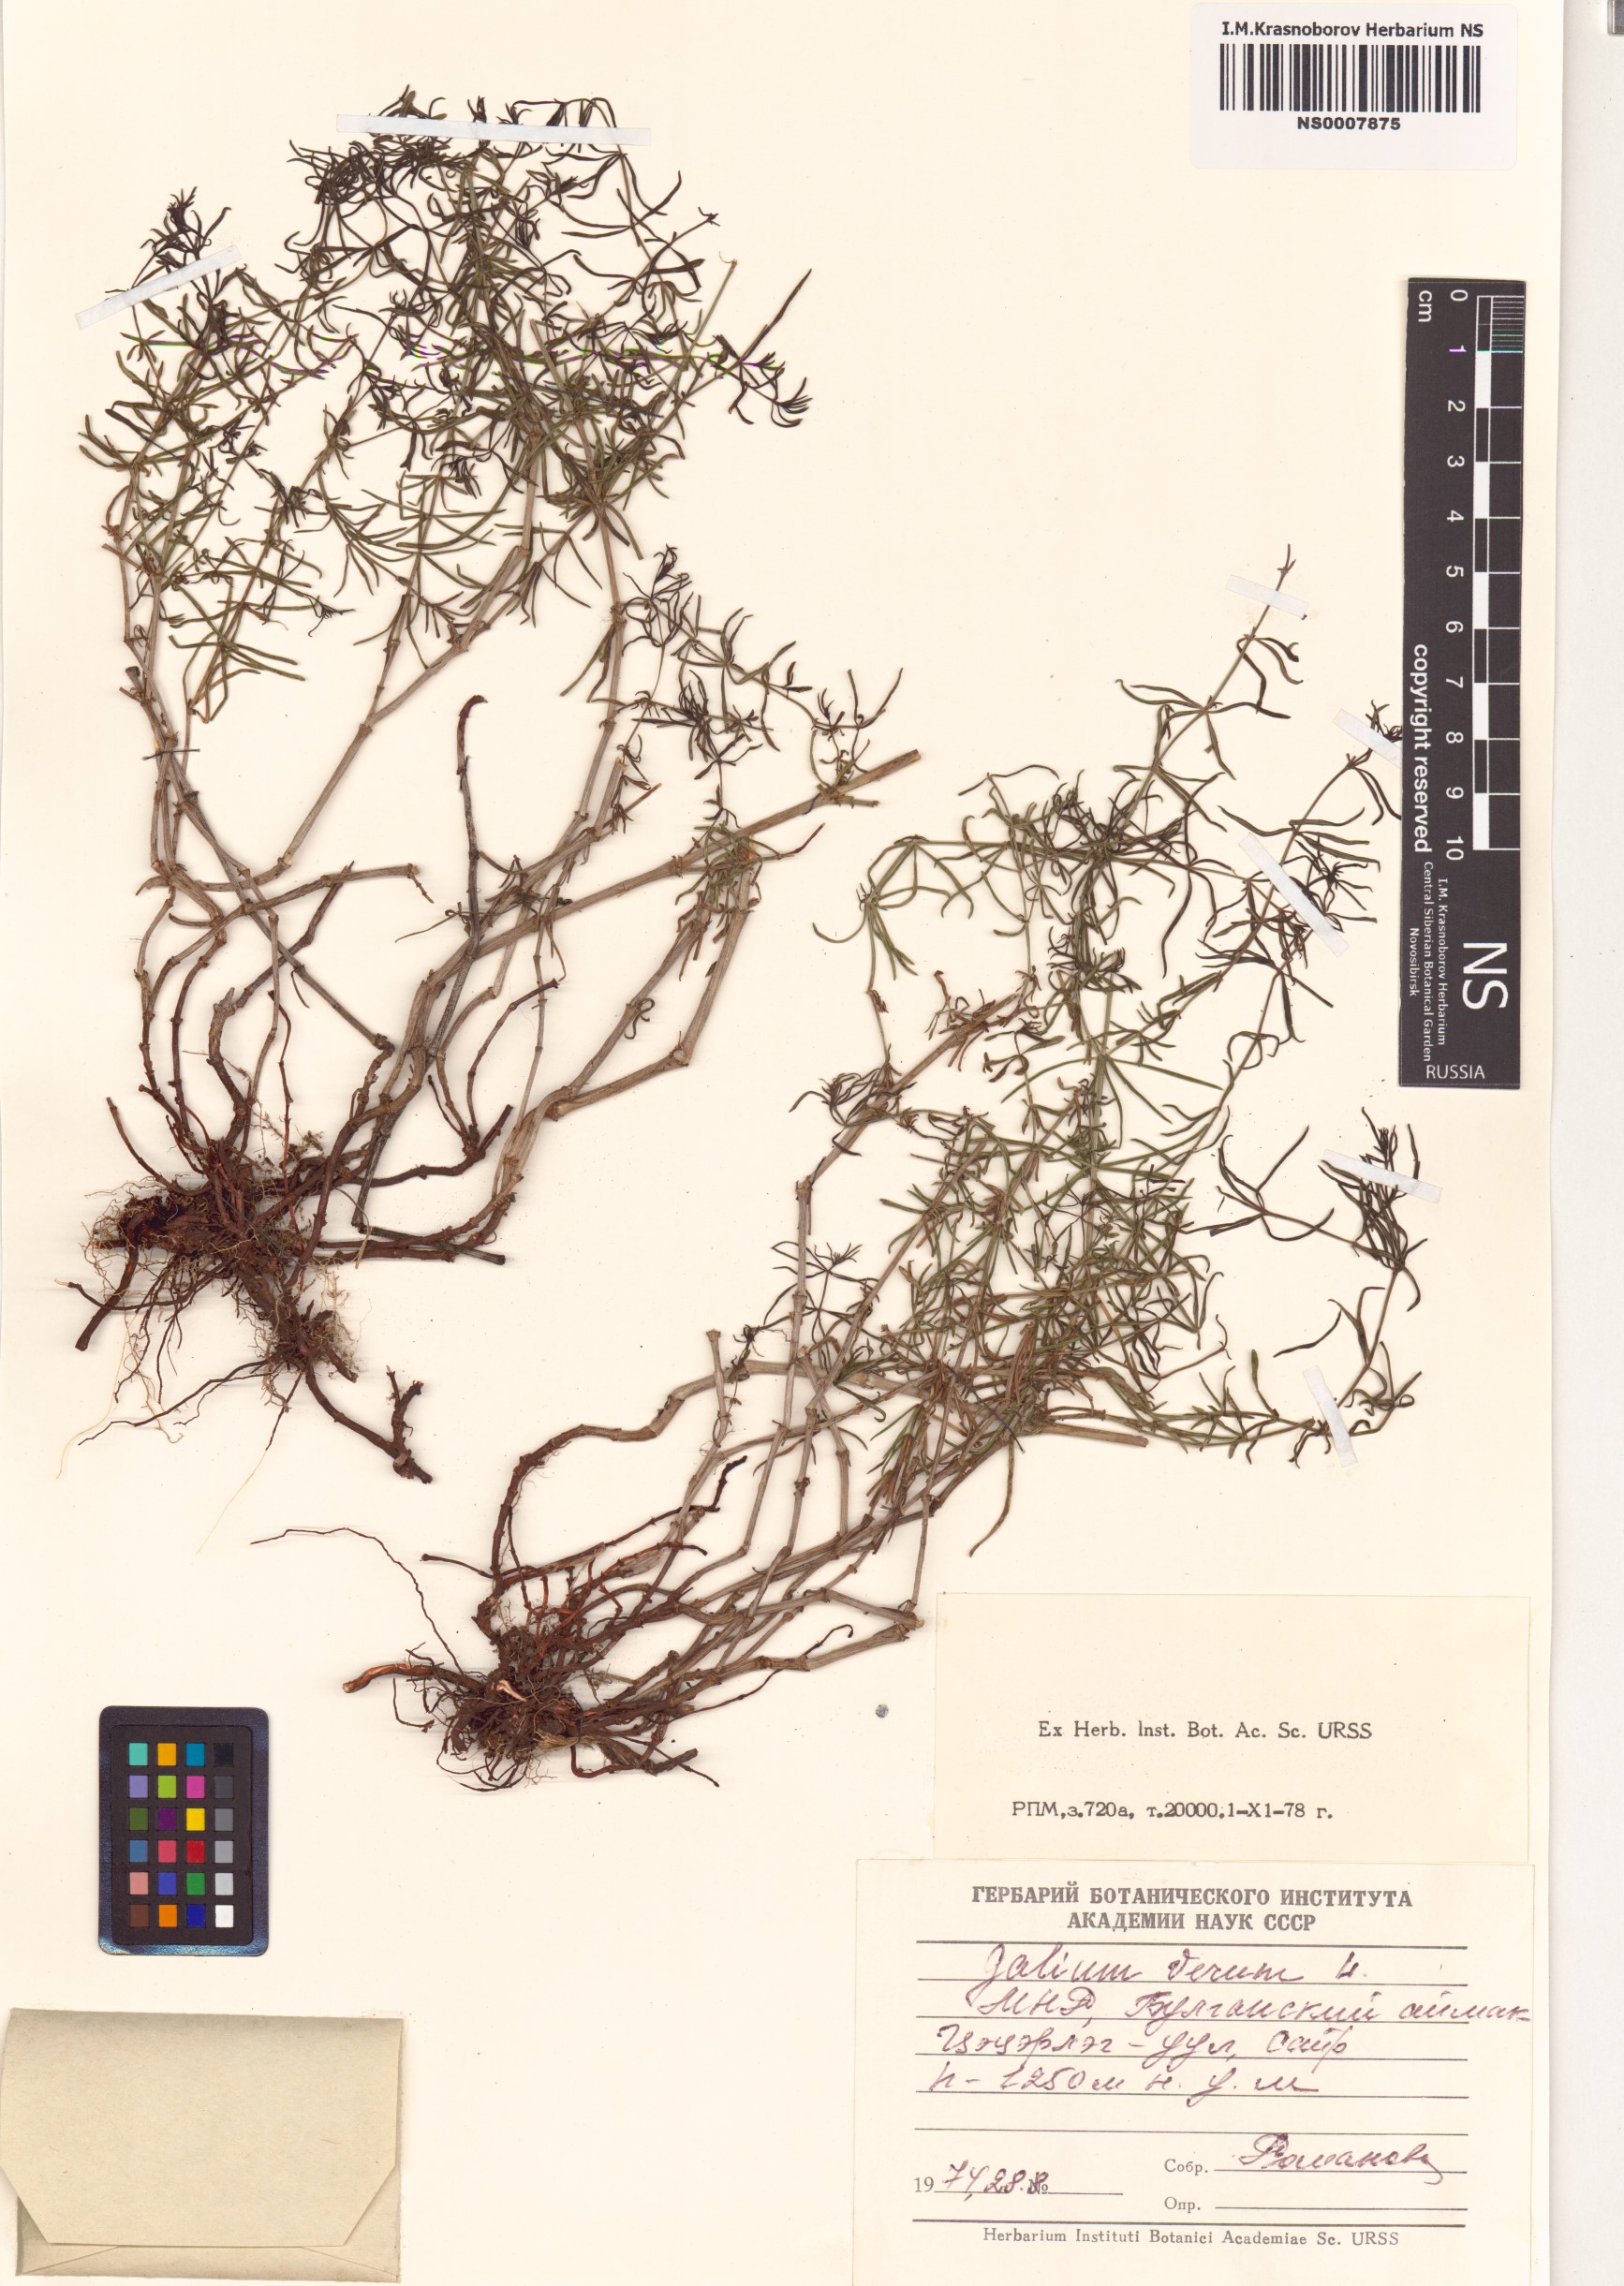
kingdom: Plantae
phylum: Tracheophyta
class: Magnoliopsida
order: Gentianales
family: Rubiaceae
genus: Galium
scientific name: Galium verum
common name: Lady's bedstraw
